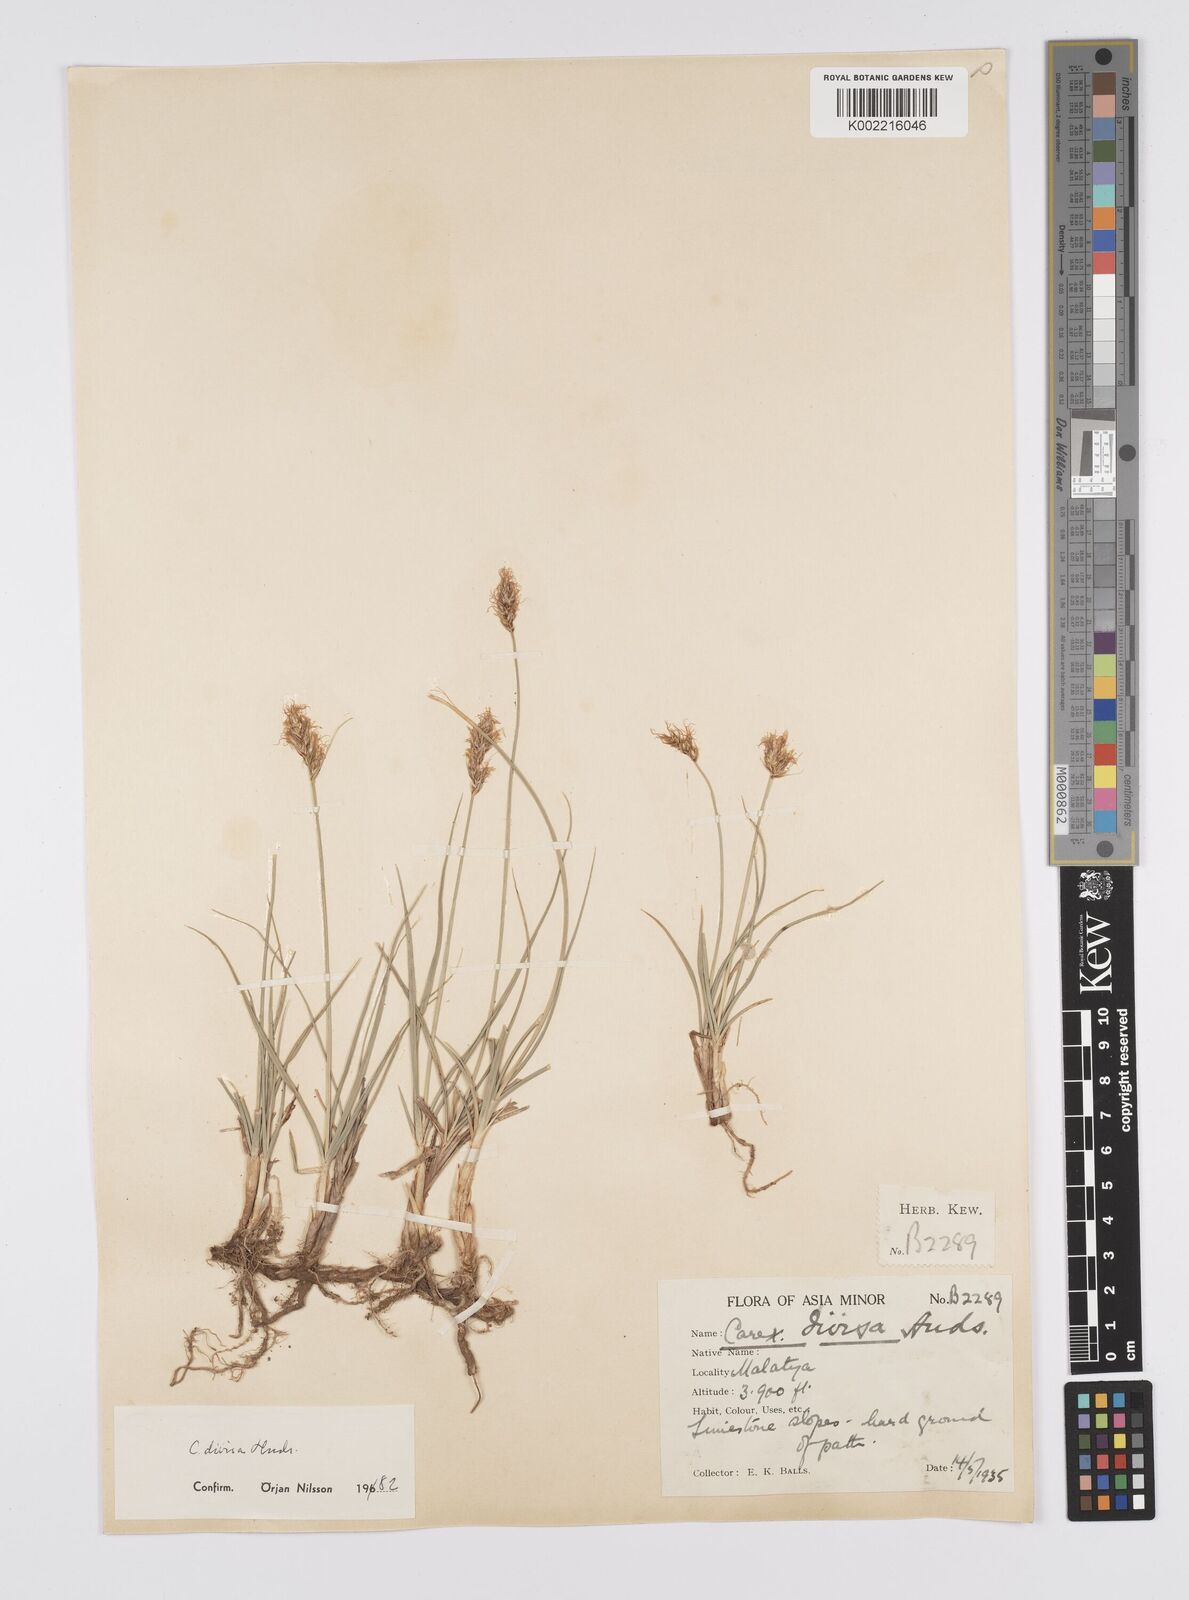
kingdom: Plantae
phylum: Tracheophyta
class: Liliopsida
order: Poales
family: Cyperaceae
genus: Carex
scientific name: Carex divisa
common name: Divided sedge
